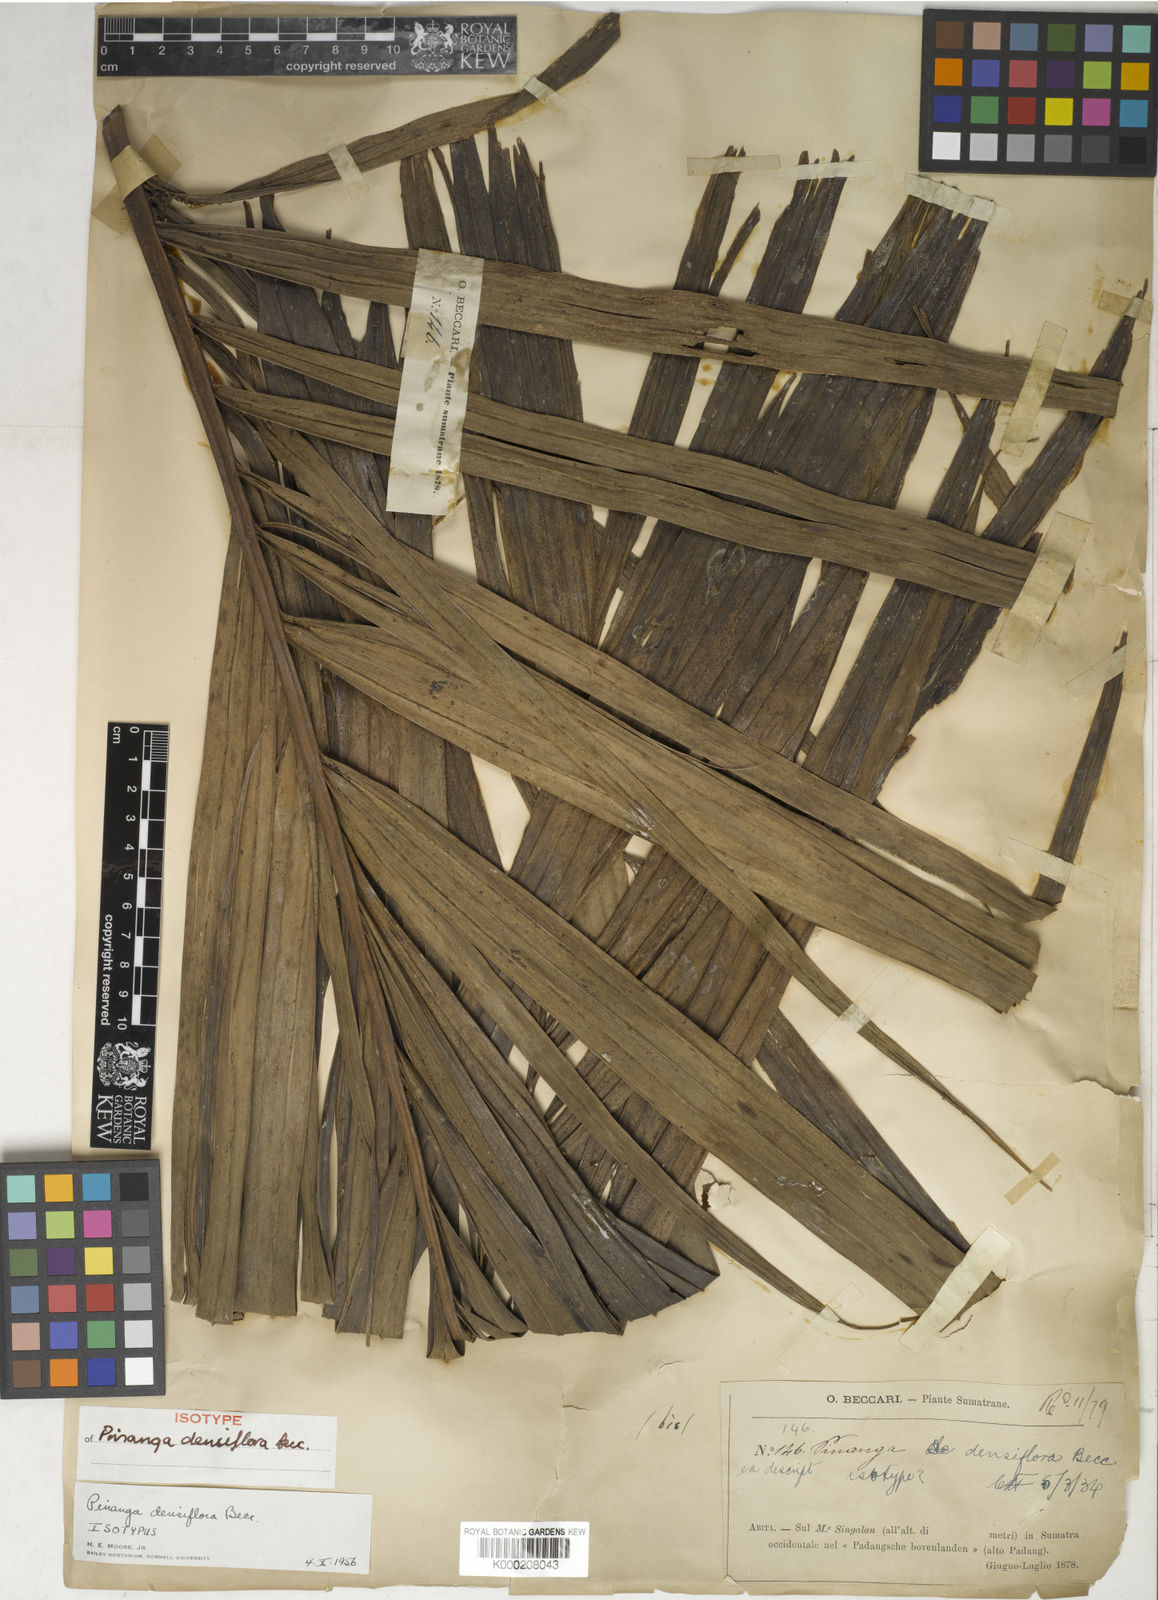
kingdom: Plantae
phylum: Tracheophyta
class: Liliopsida
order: Arecales
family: Arecaceae
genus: Pinanga
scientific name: Pinanga densiflora
